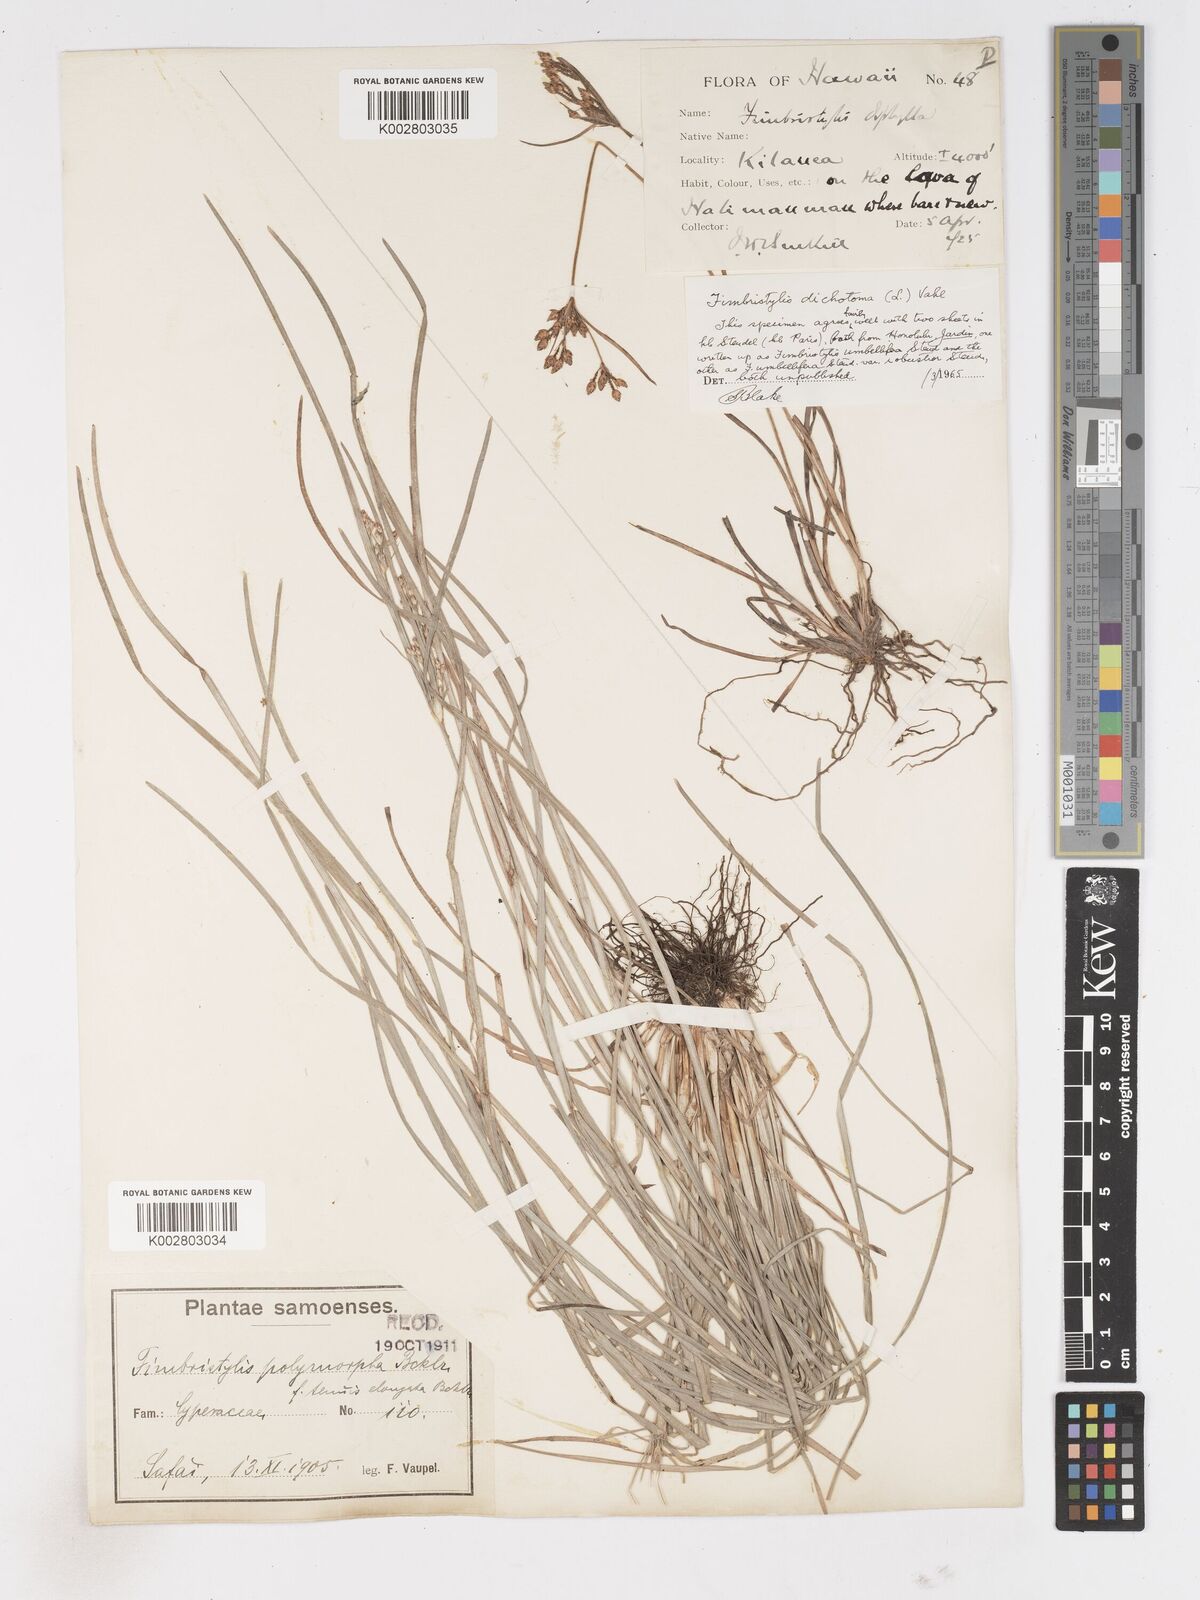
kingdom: Plantae
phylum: Tracheophyta
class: Liliopsida
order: Poales
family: Cyperaceae
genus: Fimbristylis
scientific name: Fimbristylis dichotoma
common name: Forked fimbry
